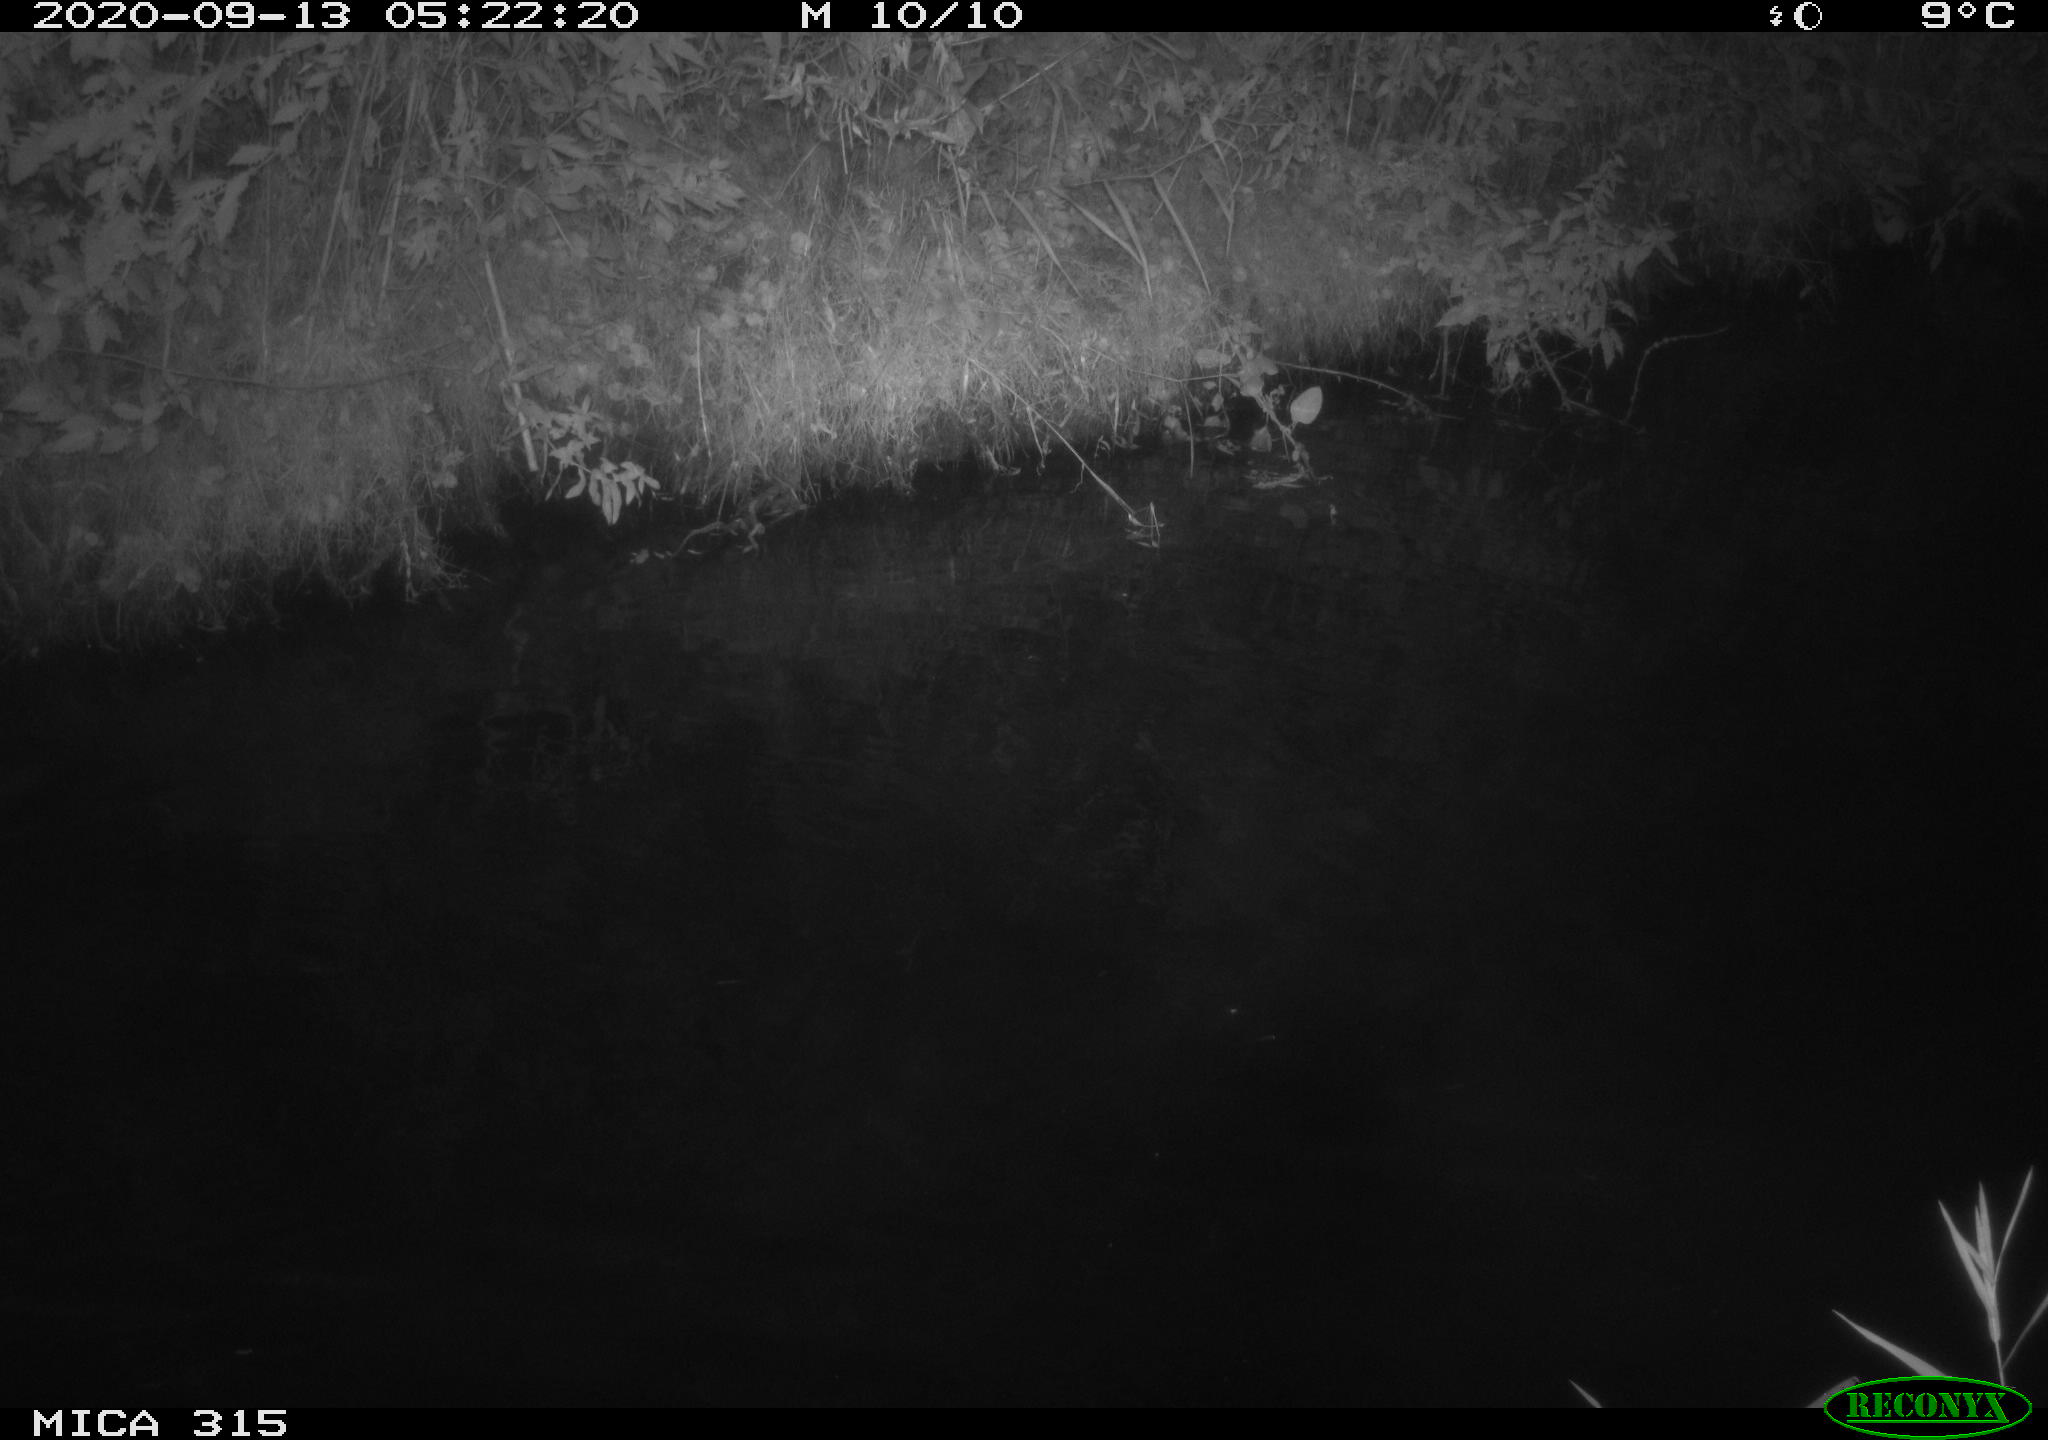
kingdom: Animalia
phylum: Chordata
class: Aves
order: Anseriformes
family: Anatidae
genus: Anas
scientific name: Anas platyrhynchos
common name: Mallard
